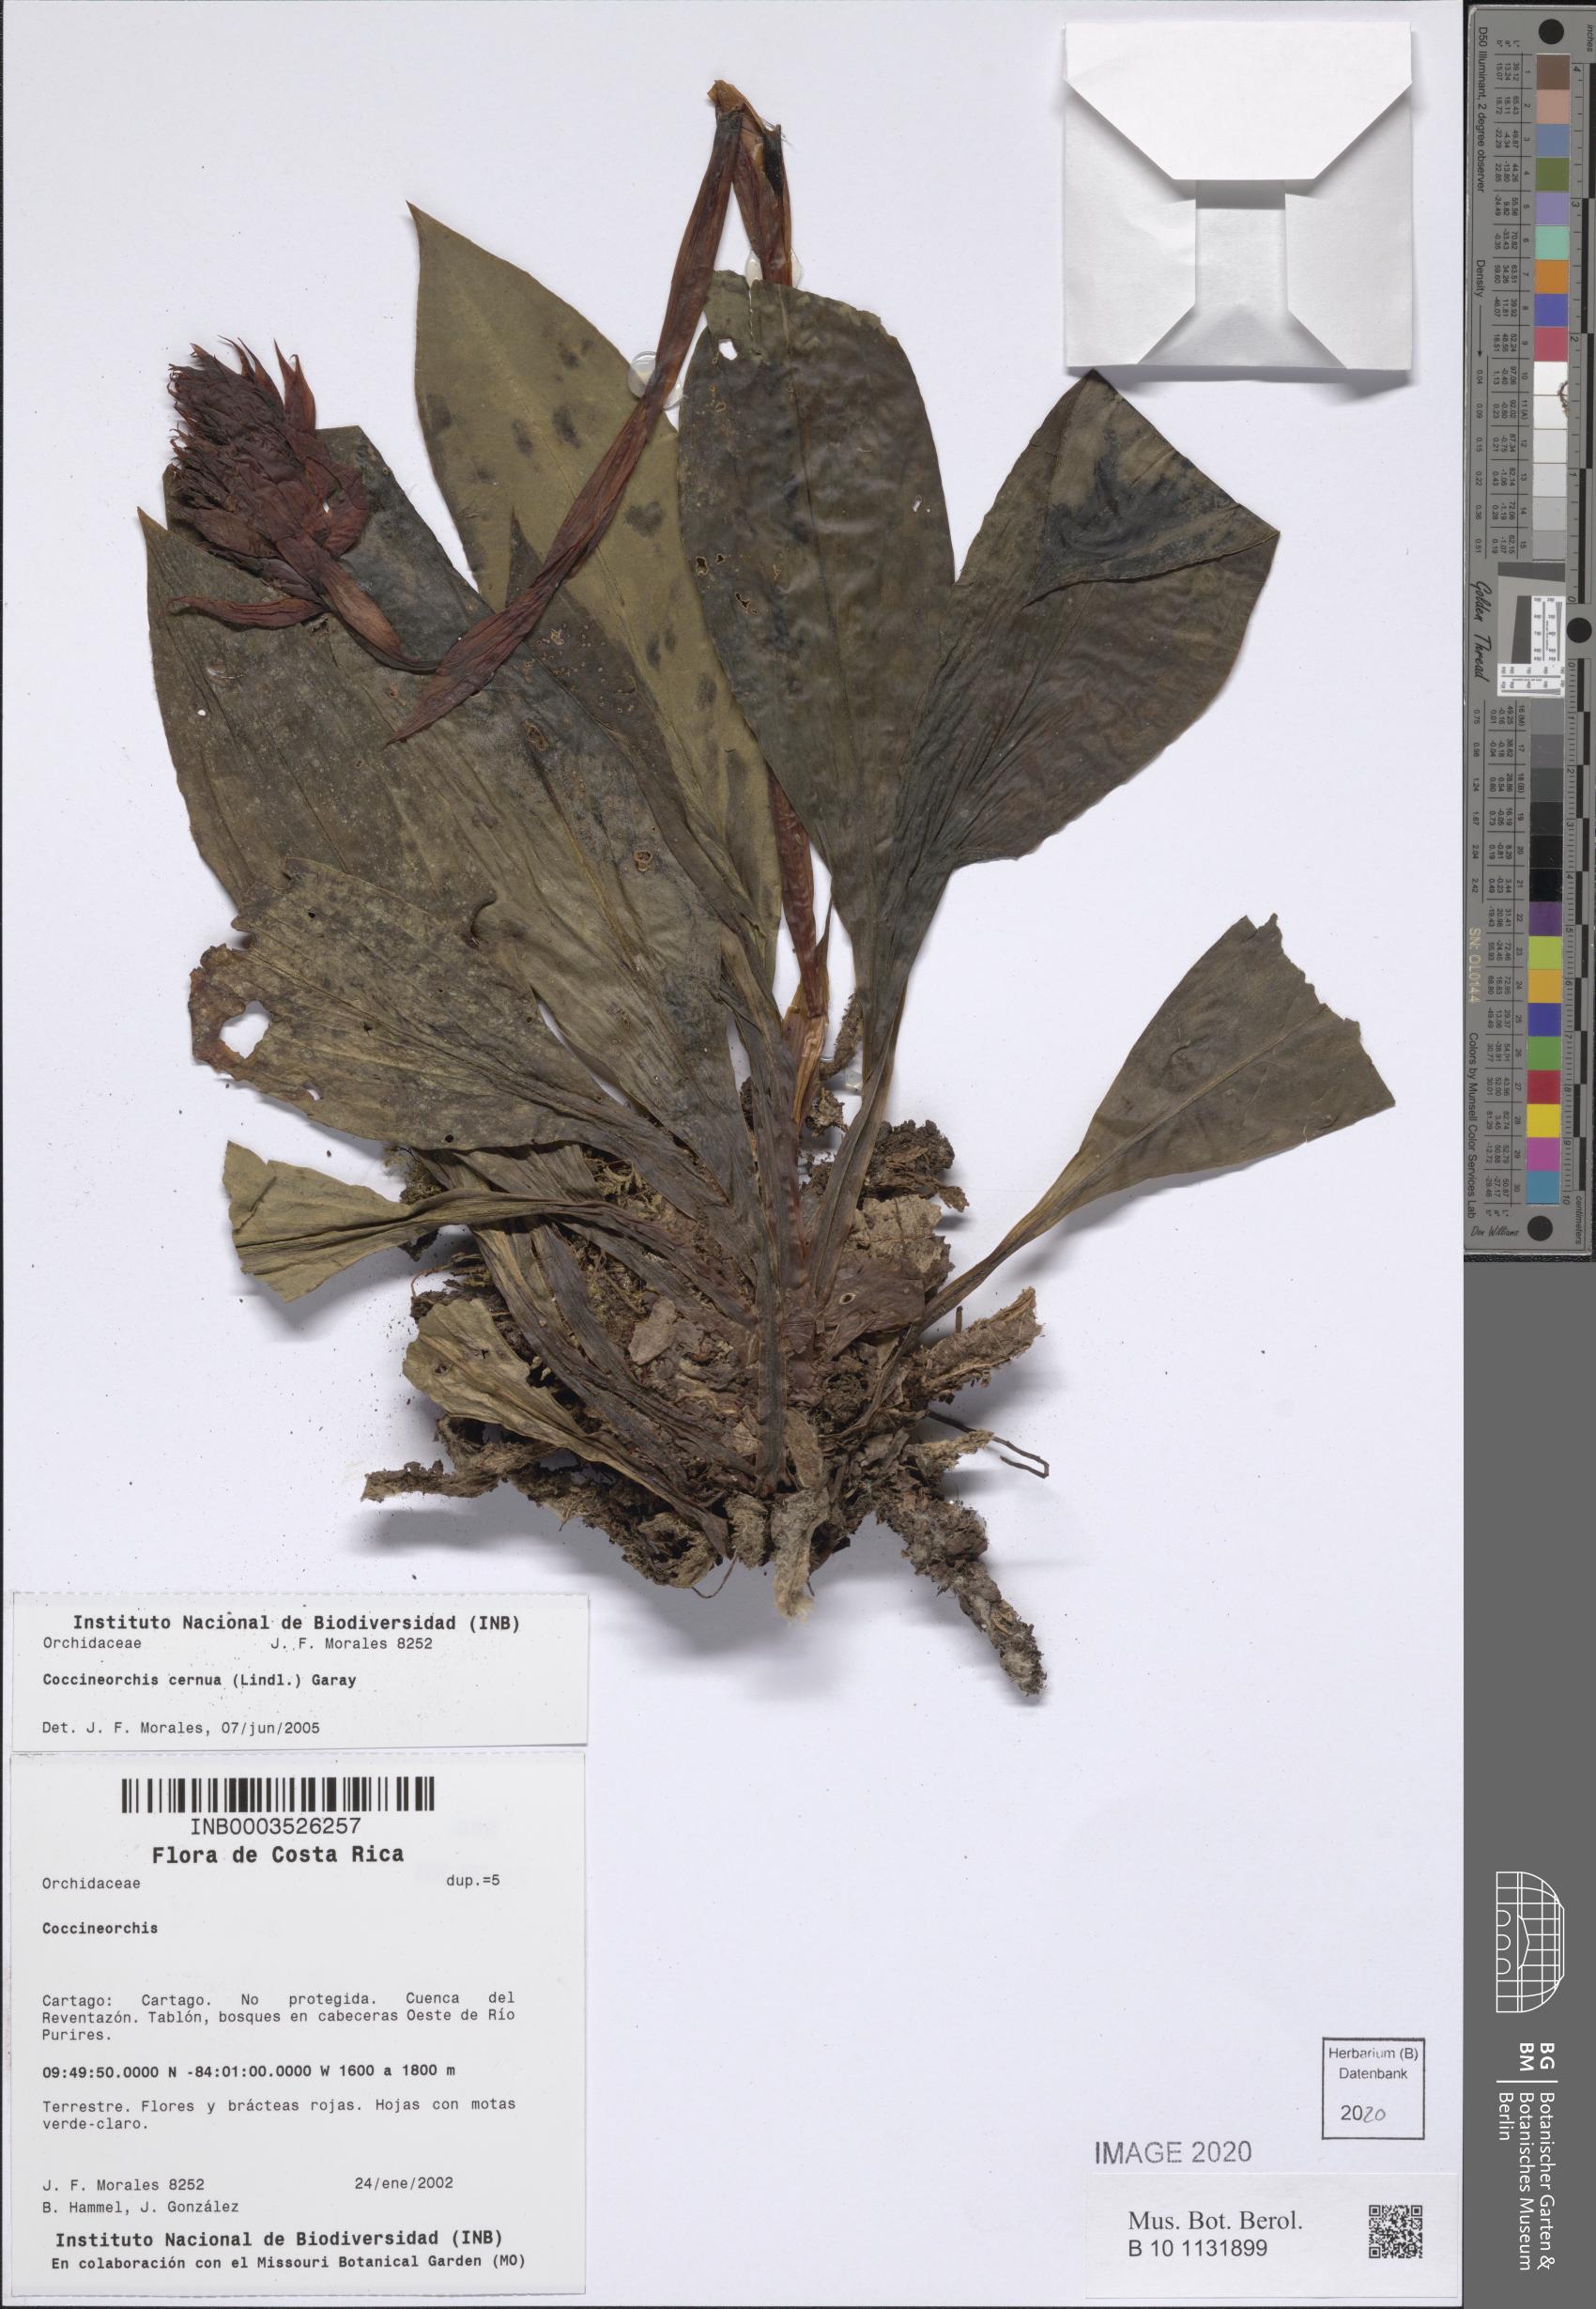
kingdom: Plantae
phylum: Tracheophyta
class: Liliopsida
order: Asparagales
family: Orchidaceae
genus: Coccineorchis
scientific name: Coccineorchis cernua
